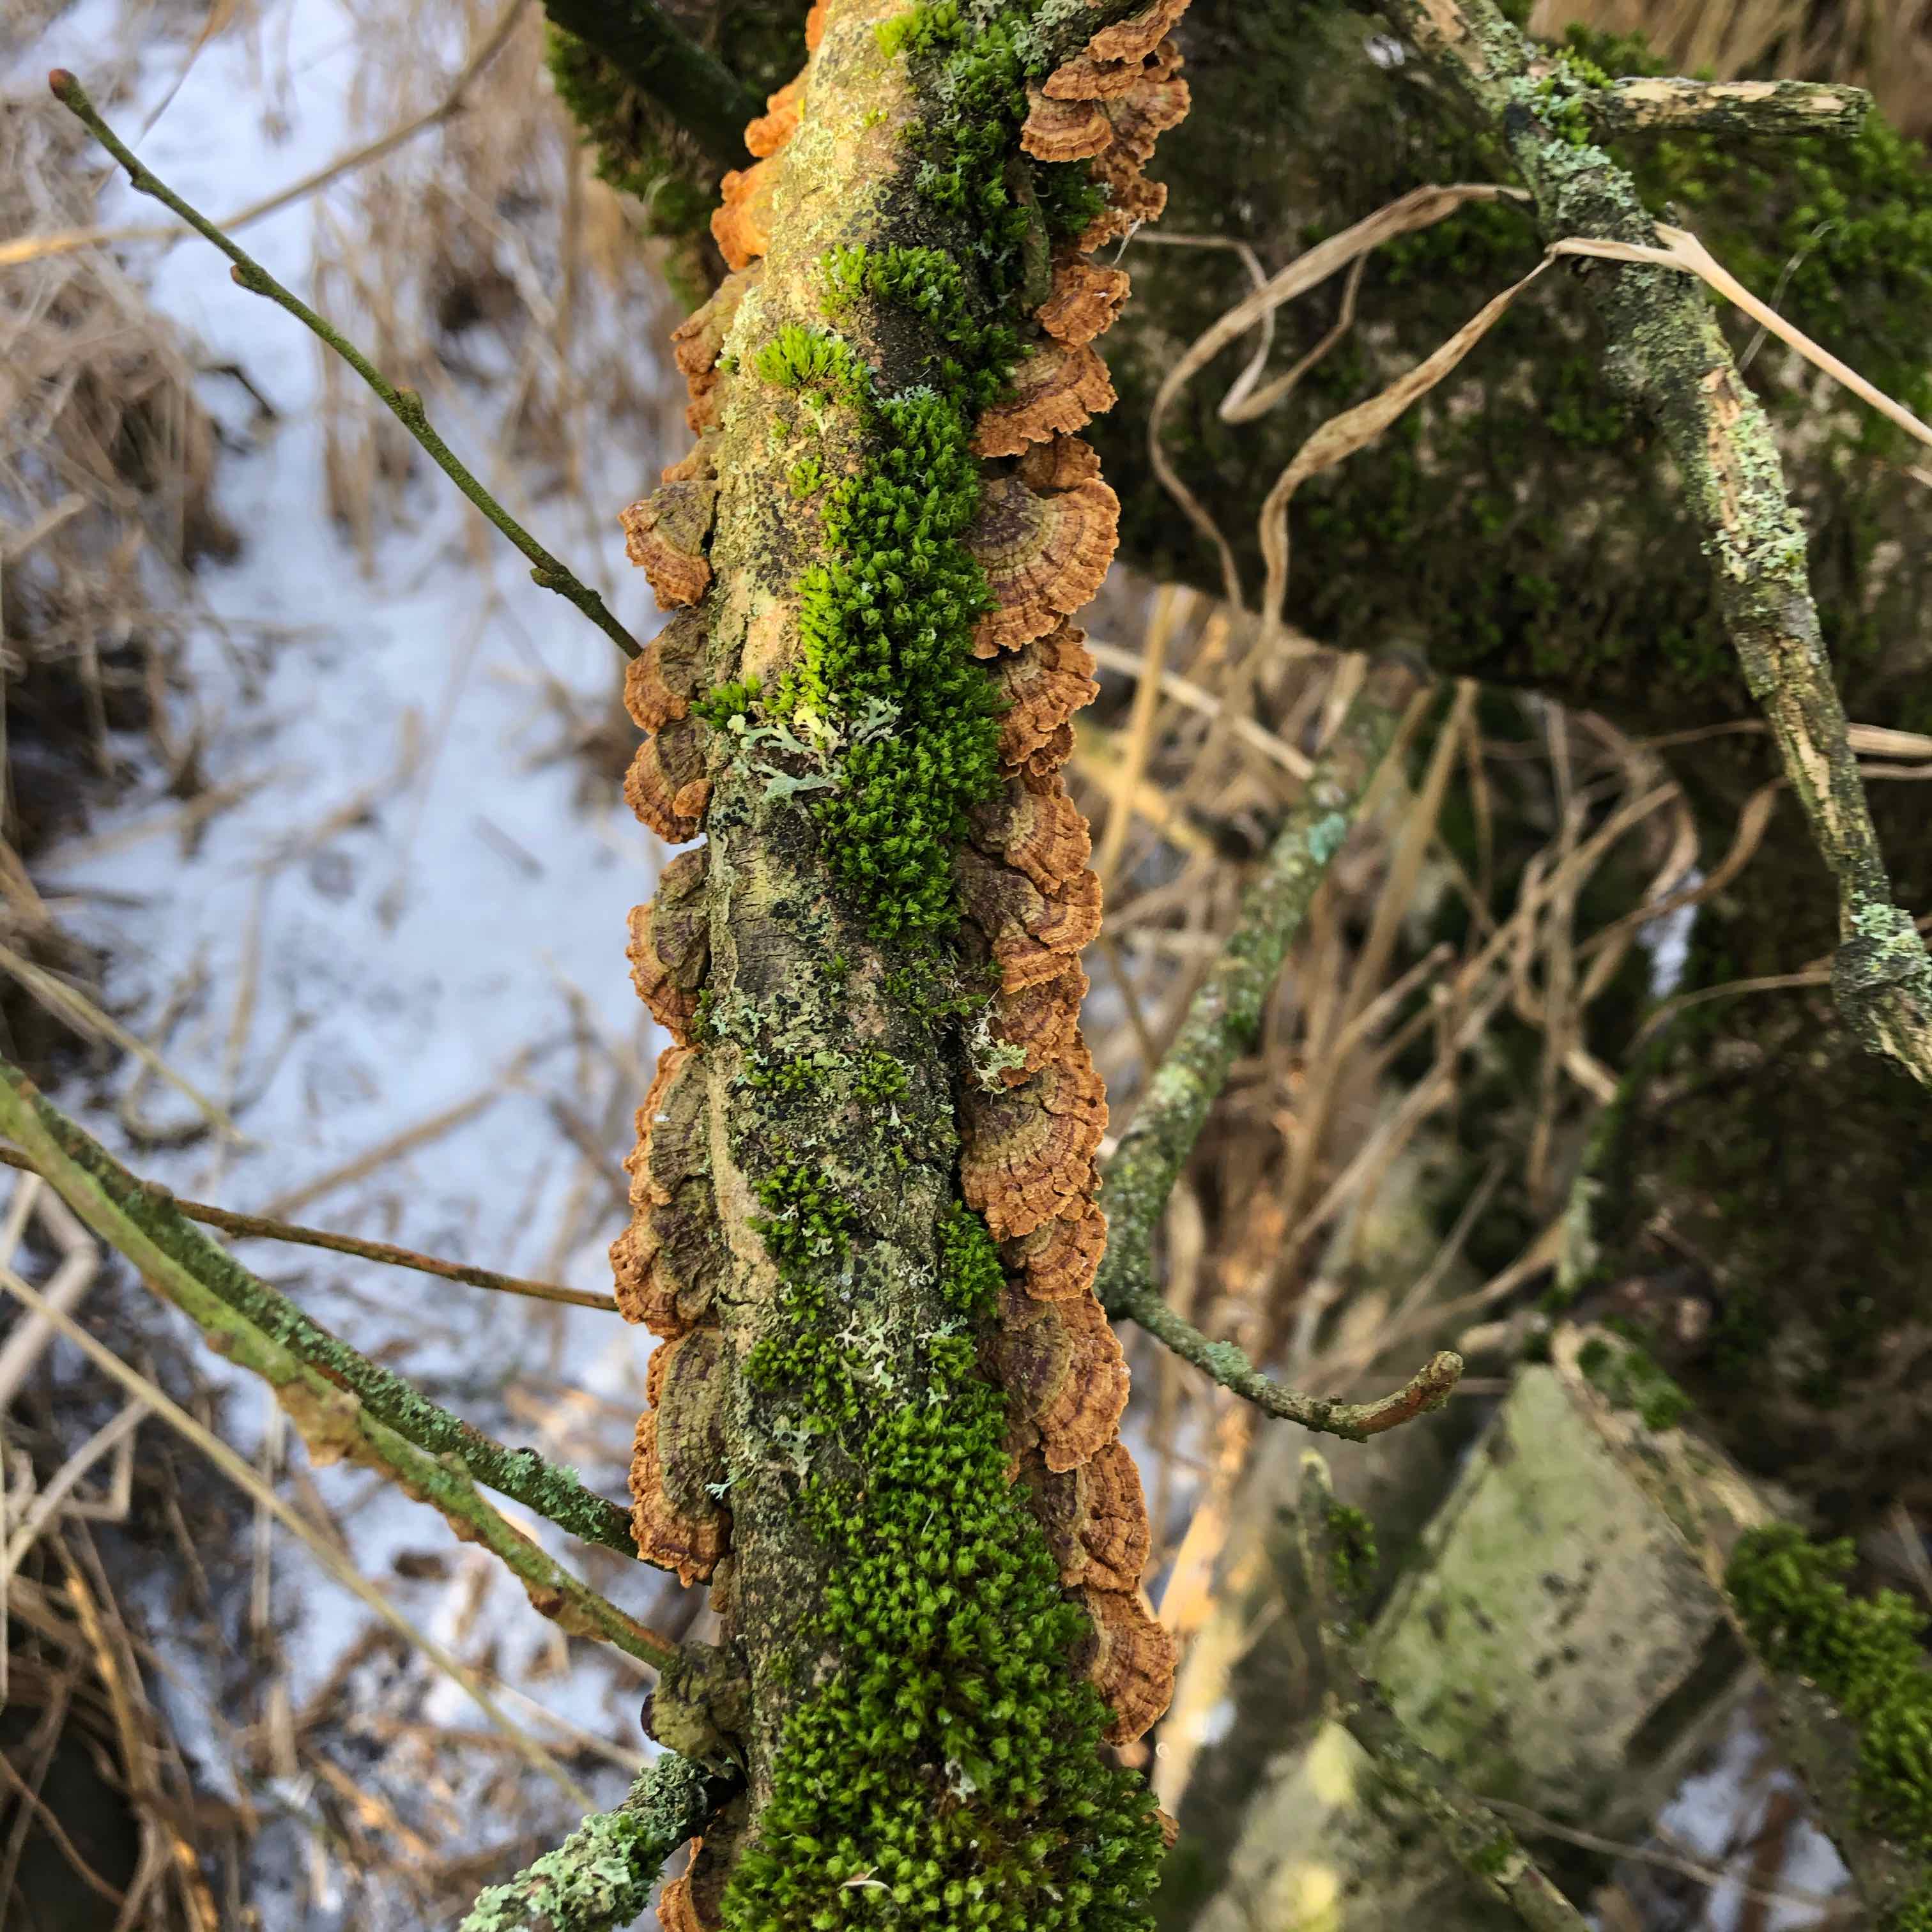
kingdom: Fungi
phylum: Basidiomycota
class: Agaricomycetes
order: Hymenochaetales
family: Hymenochaetaceae
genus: Hydnoporia
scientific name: Hydnoporia tabacina
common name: tobaksbrun ruslædersvamp
